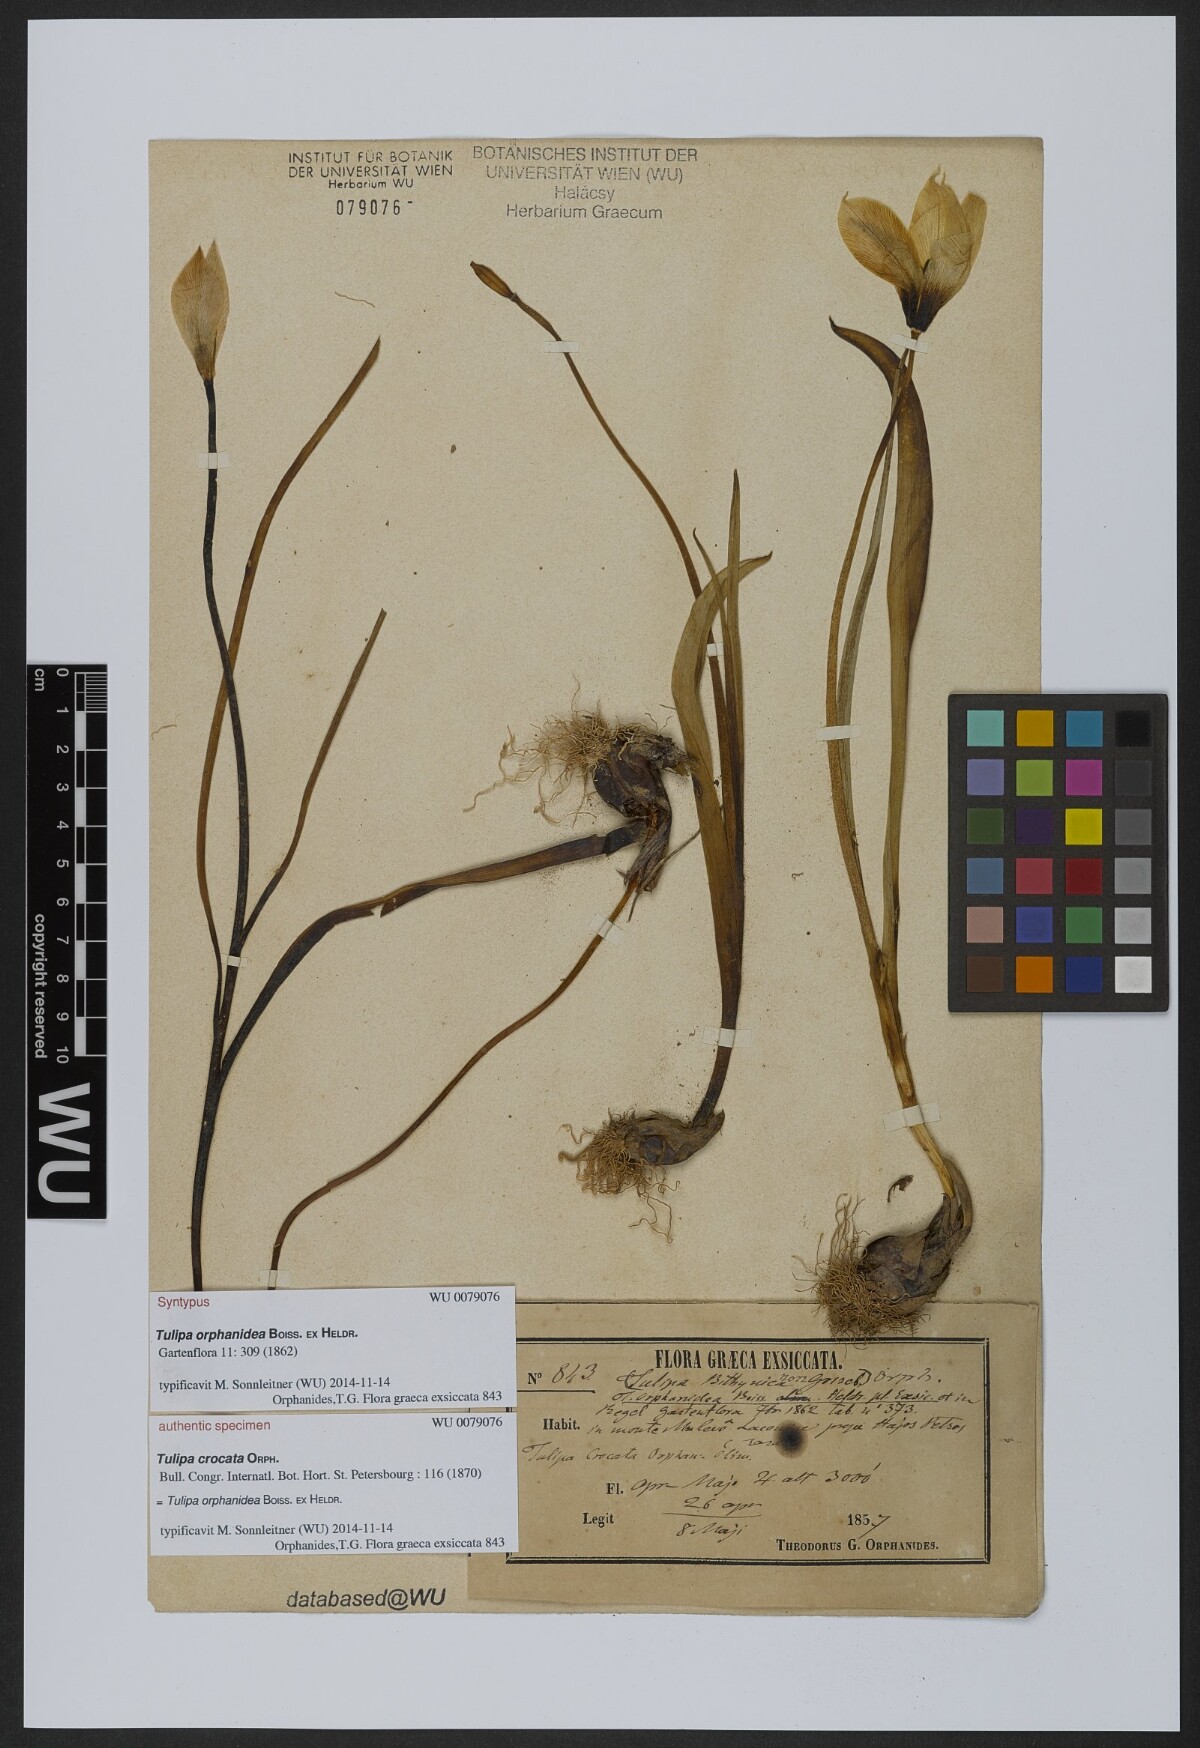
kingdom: Plantae
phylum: Tracheophyta
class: Liliopsida
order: Liliales
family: Liliaceae
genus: Tulipa
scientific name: Tulipa orphanidea
